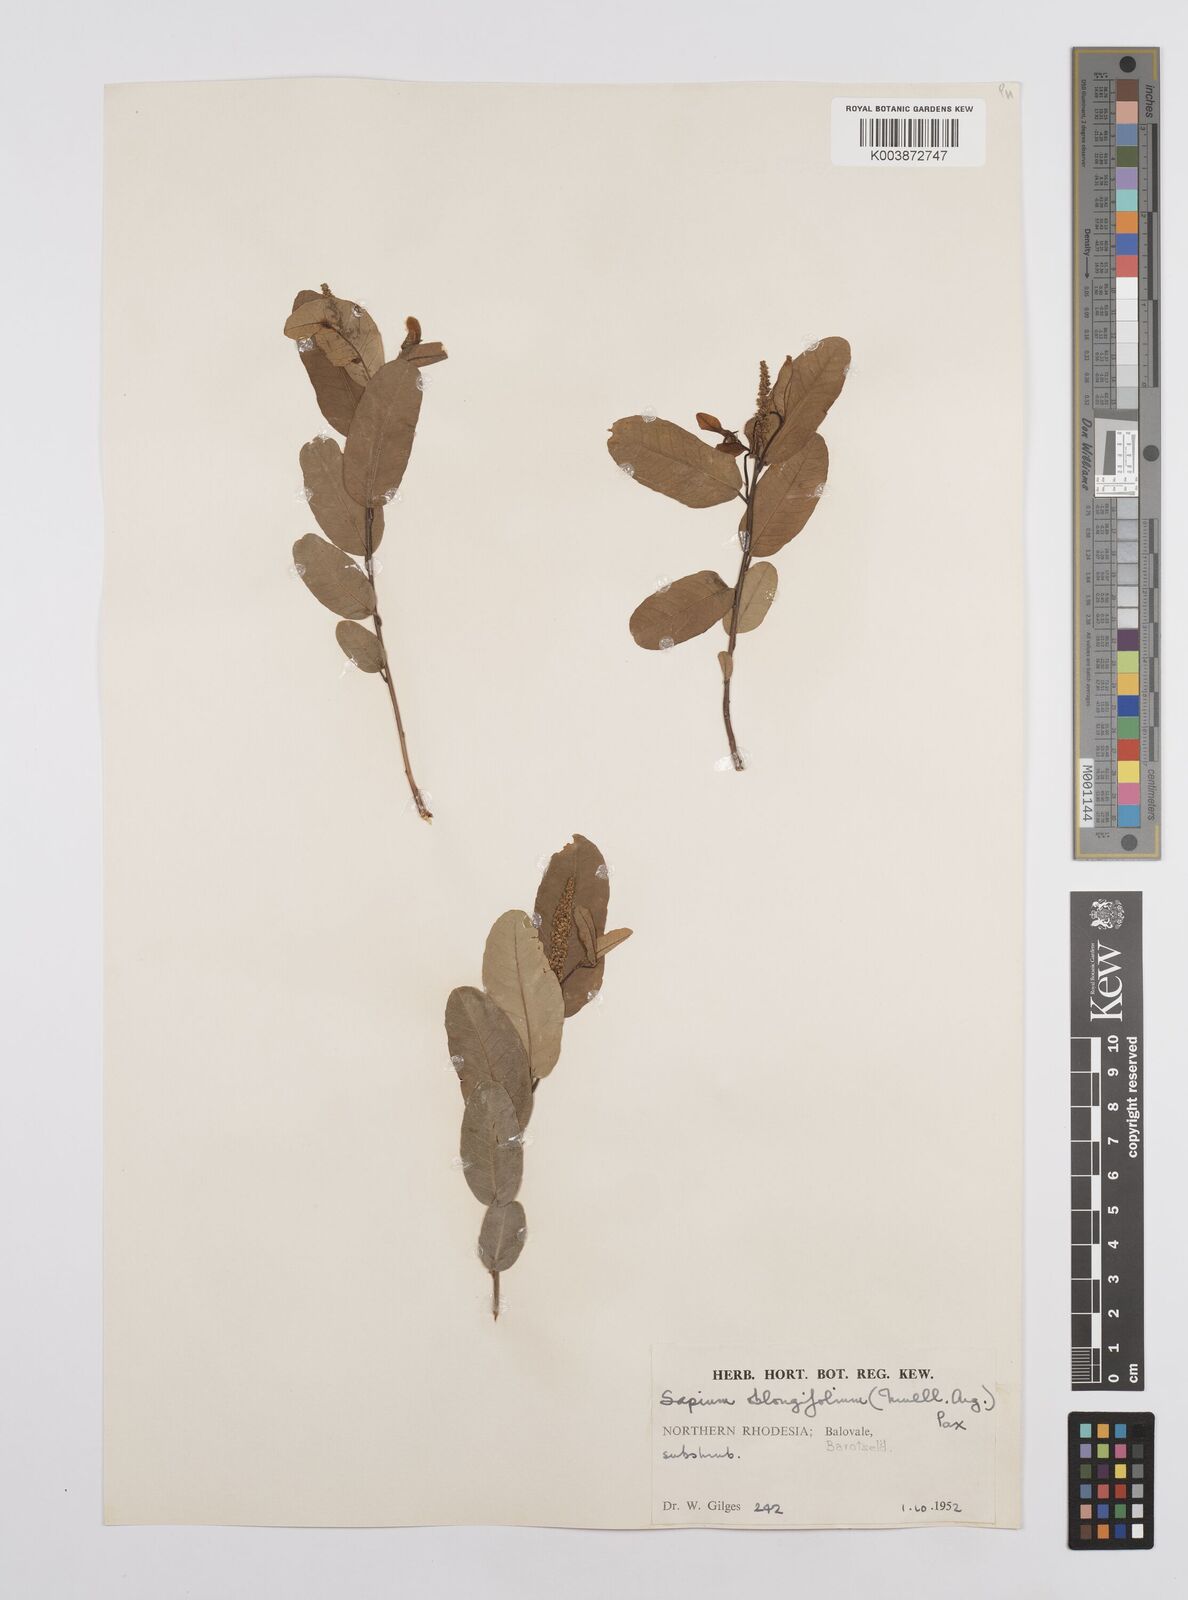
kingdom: Plantae
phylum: Tracheophyta
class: Magnoliopsida
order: Malpighiales
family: Euphorbiaceae
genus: Sclerocroton
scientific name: Sclerocroton oblongifolius
